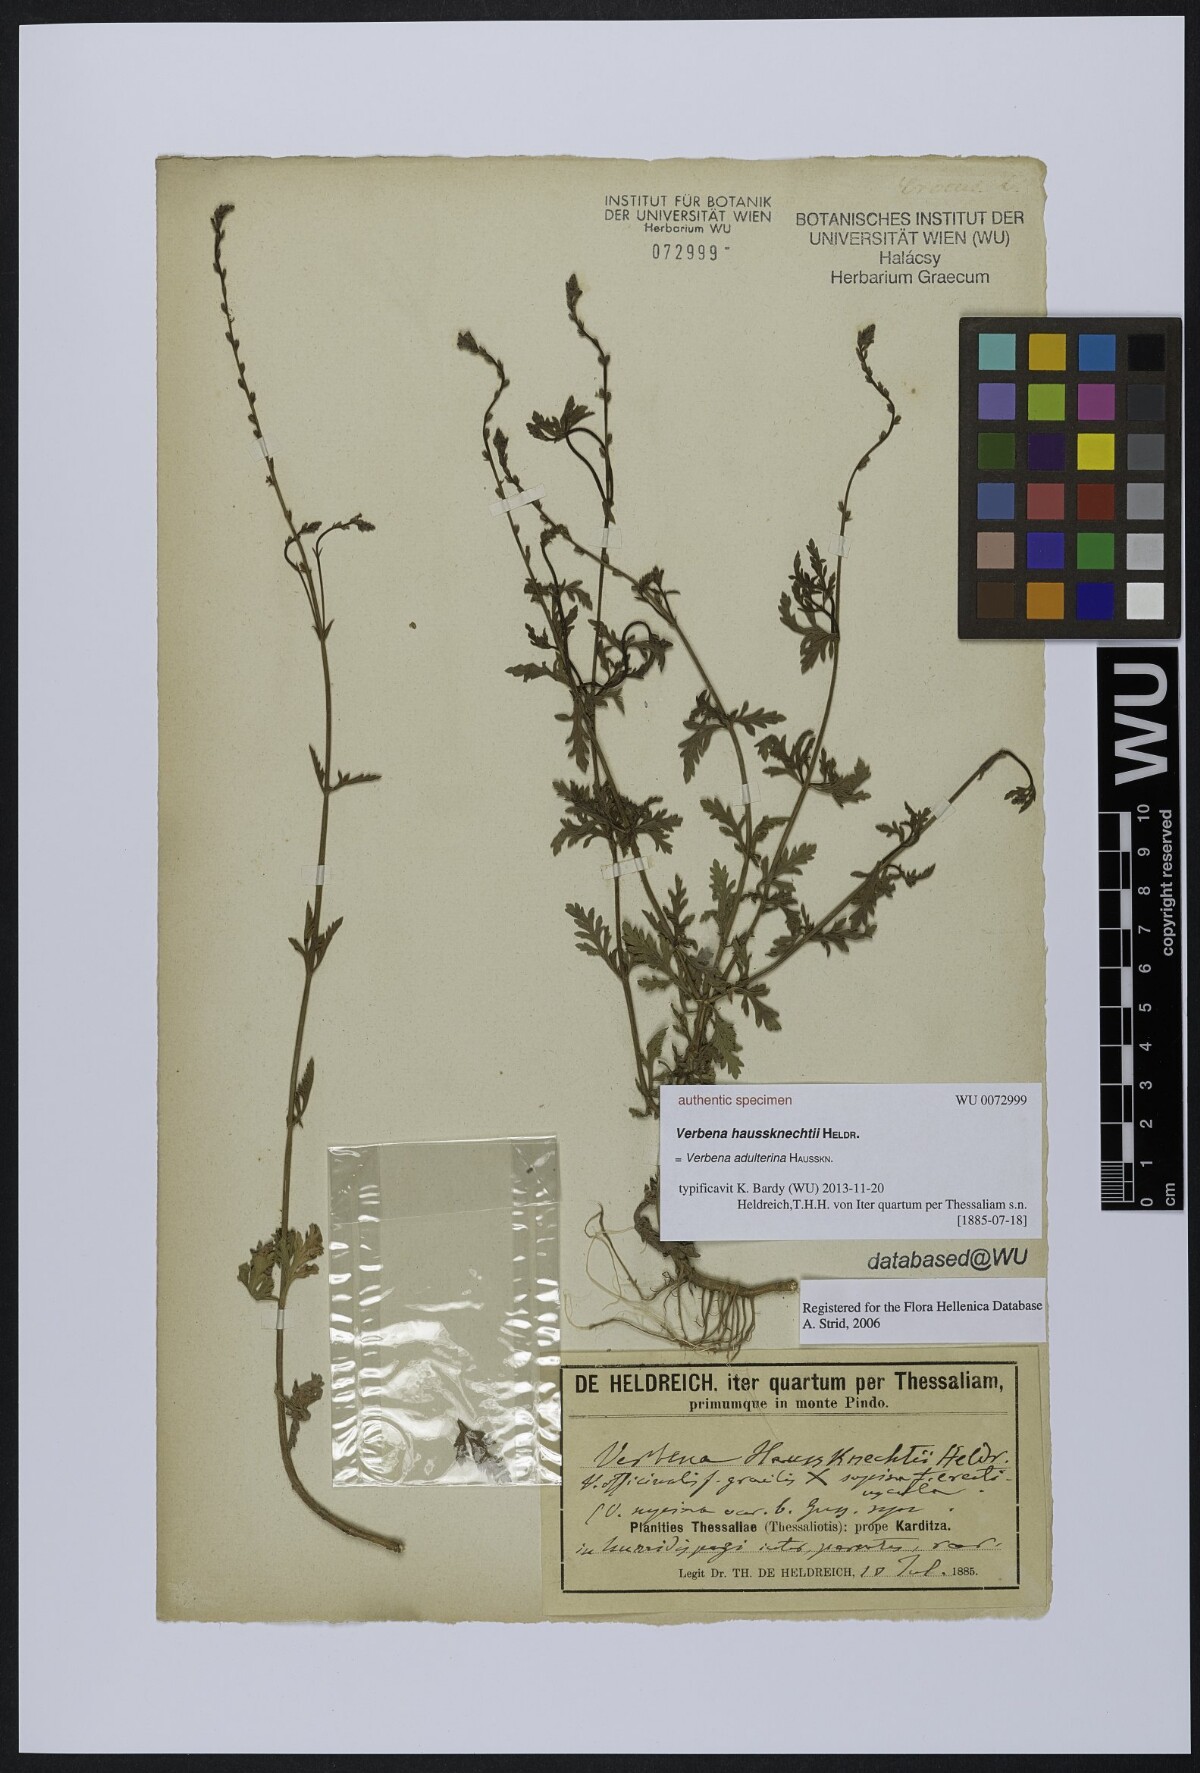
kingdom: Plantae
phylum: Tracheophyta
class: Magnoliopsida
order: Lamiales
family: Verbenaceae
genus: Verbena
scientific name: Verbena
